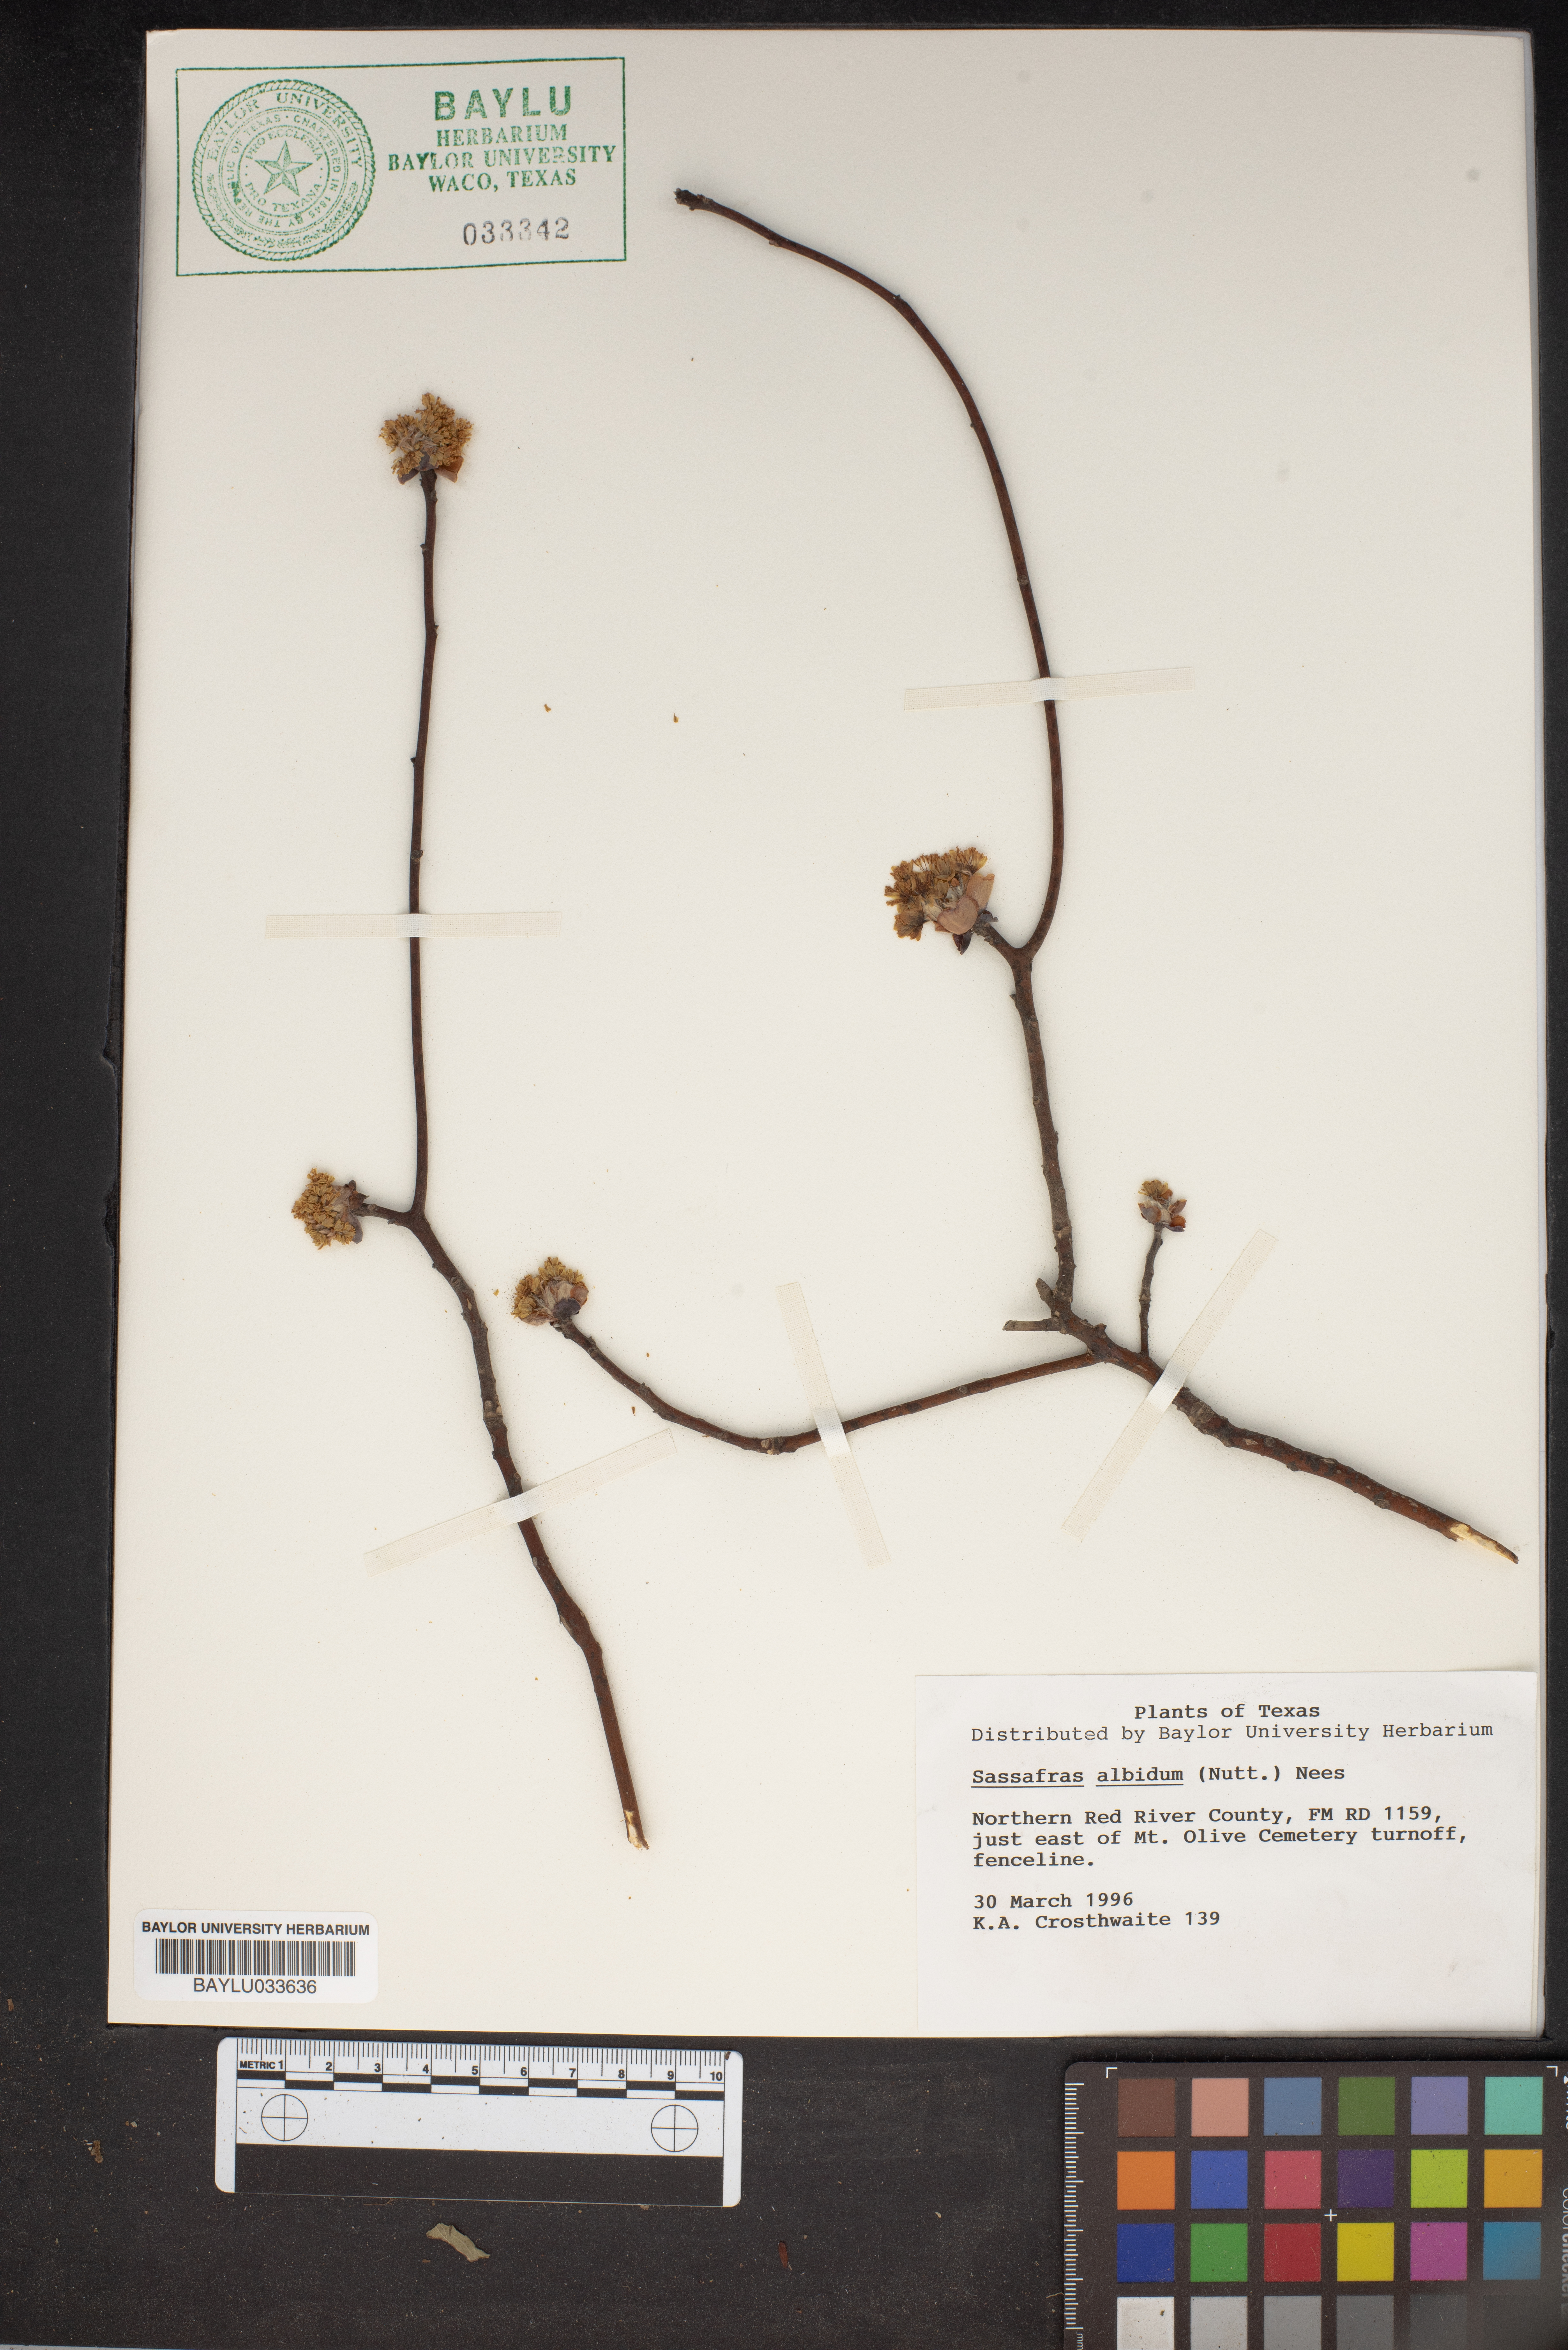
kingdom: Plantae
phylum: Tracheophyta
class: Magnoliopsida
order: Laurales
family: Lauraceae
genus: Sassafras
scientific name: Sassafras albidum
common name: Sassafras
